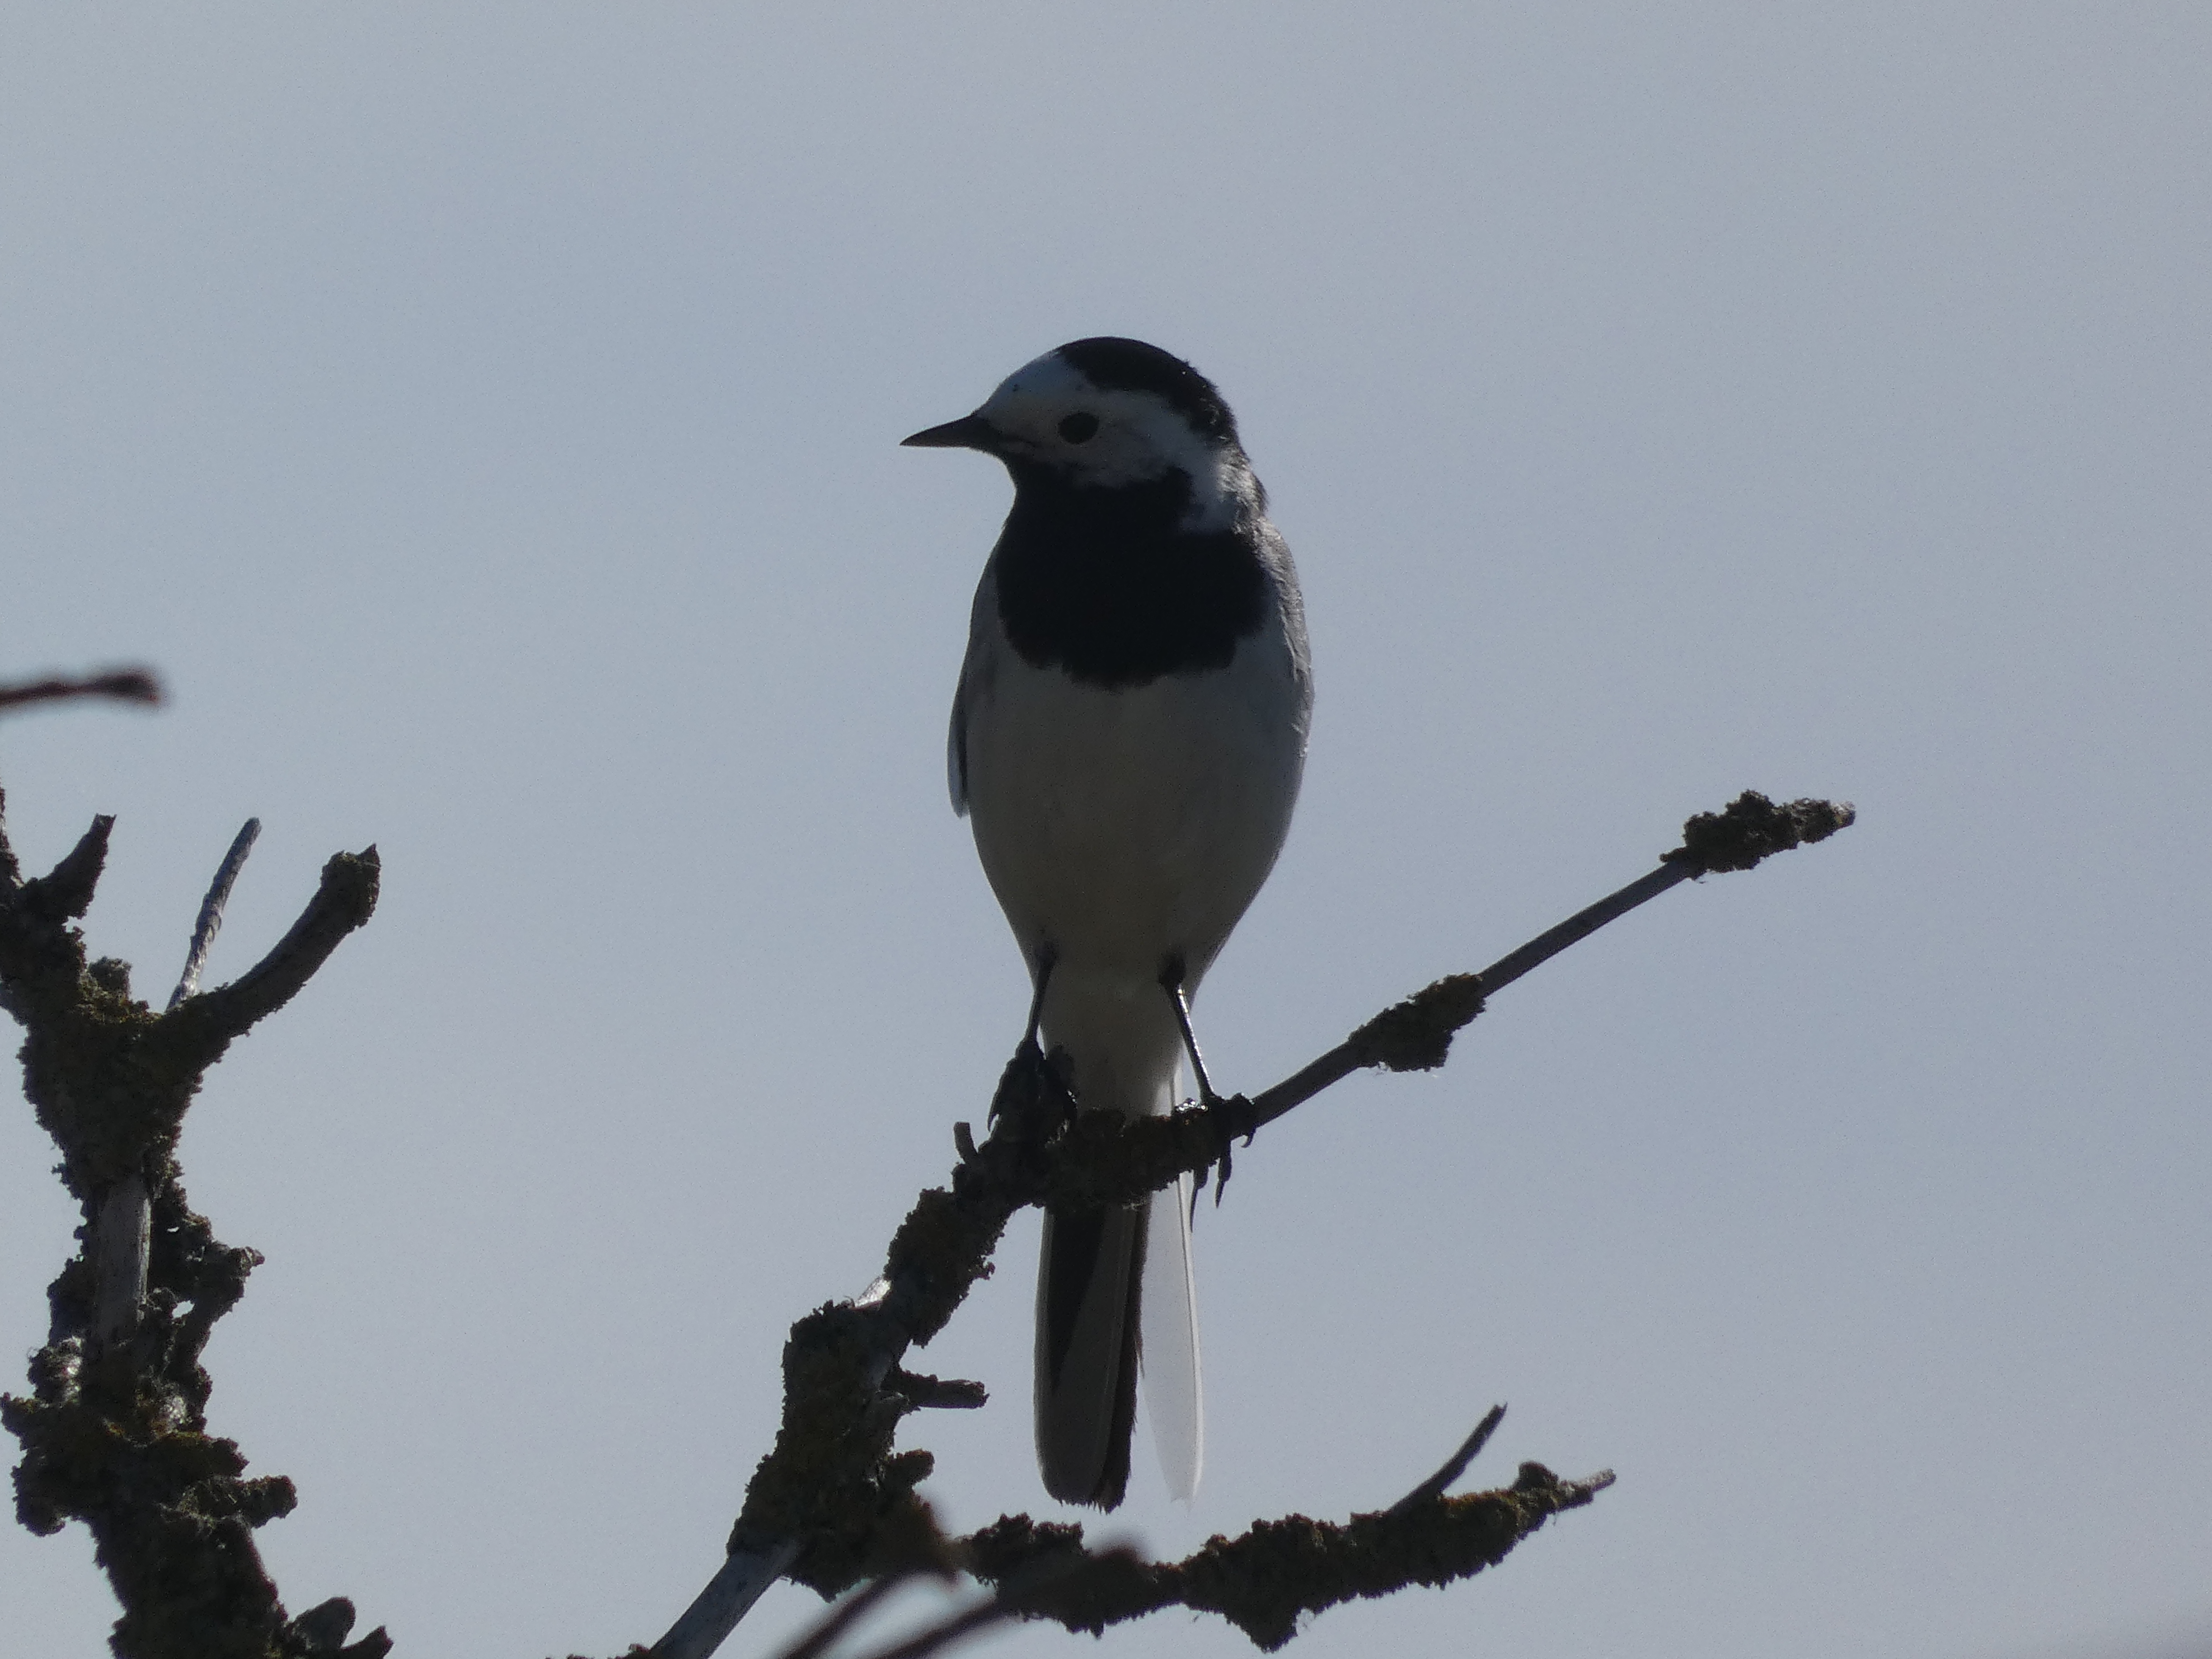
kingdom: Animalia
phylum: Chordata
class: Aves
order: Passeriformes
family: Motacillidae
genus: Motacilla
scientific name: Motacilla alba
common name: Hvid vipstjert
